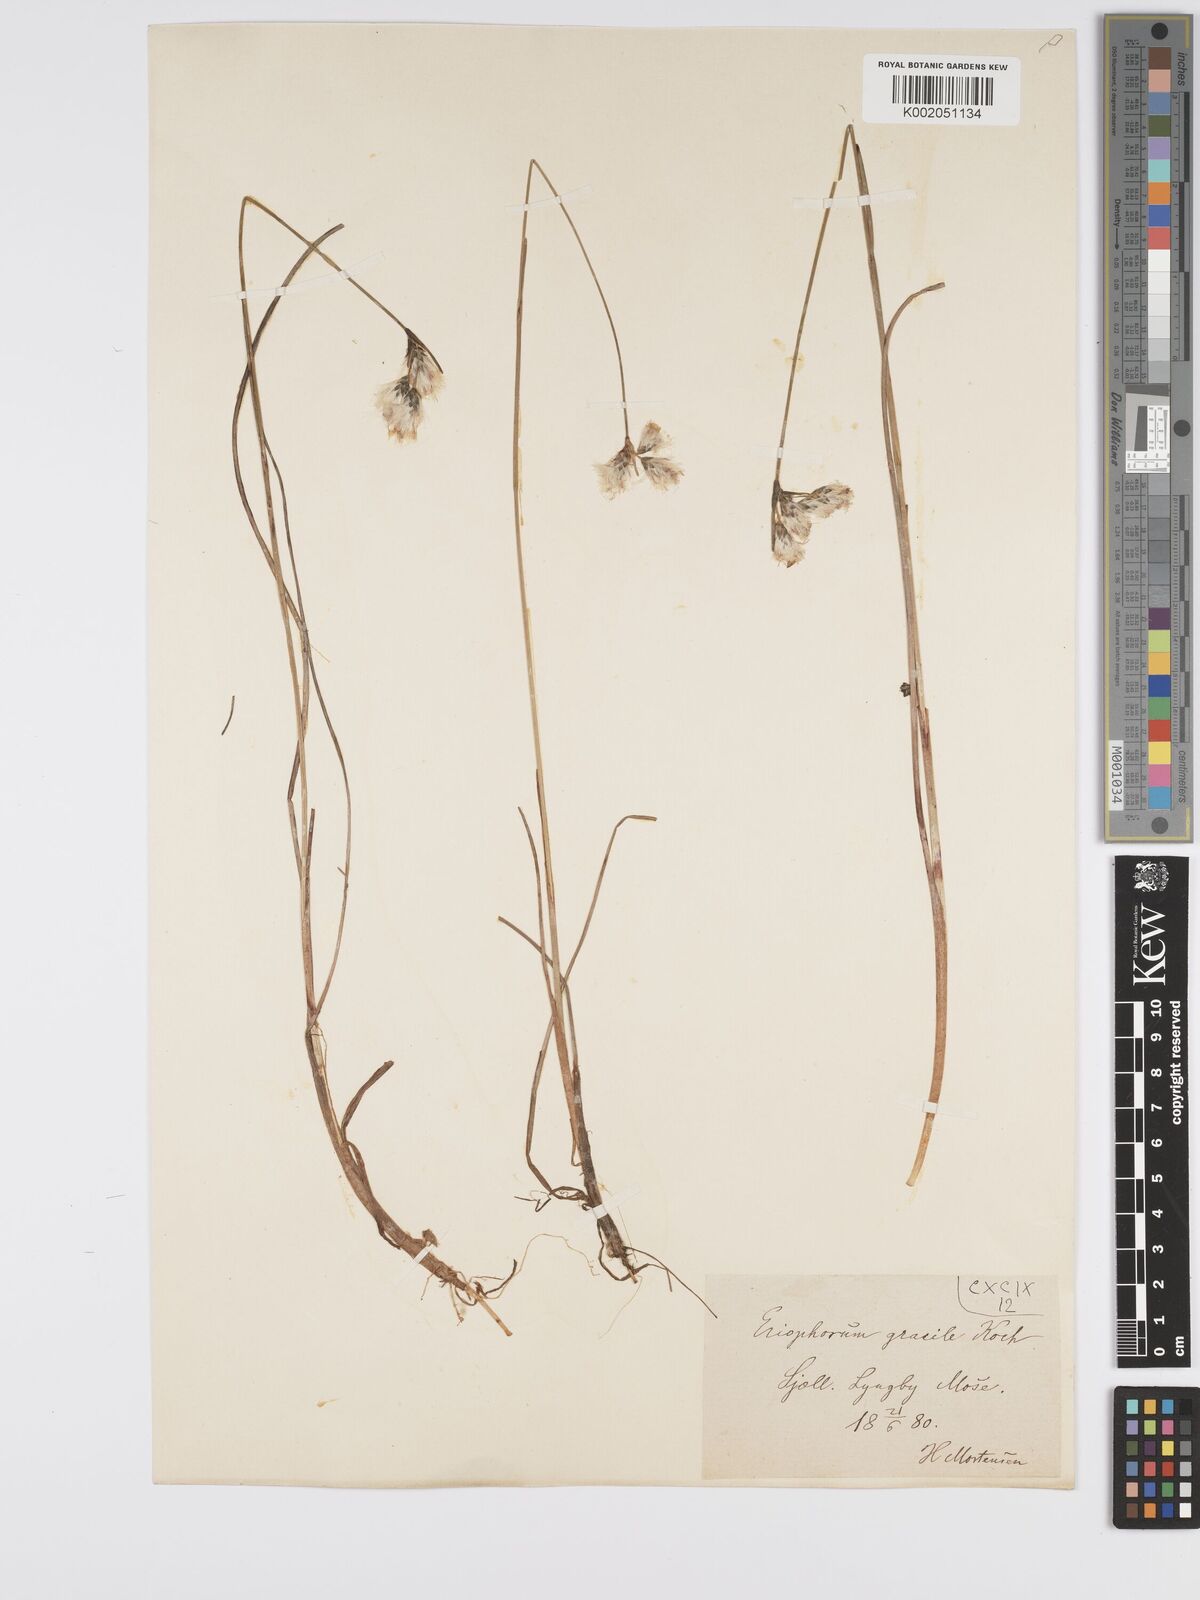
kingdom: Plantae
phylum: Tracheophyta
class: Liliopsida
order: Poales
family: Cyperaceae
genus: Eriophorum
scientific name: Eriophorum gracile
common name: Slender cottongrass
